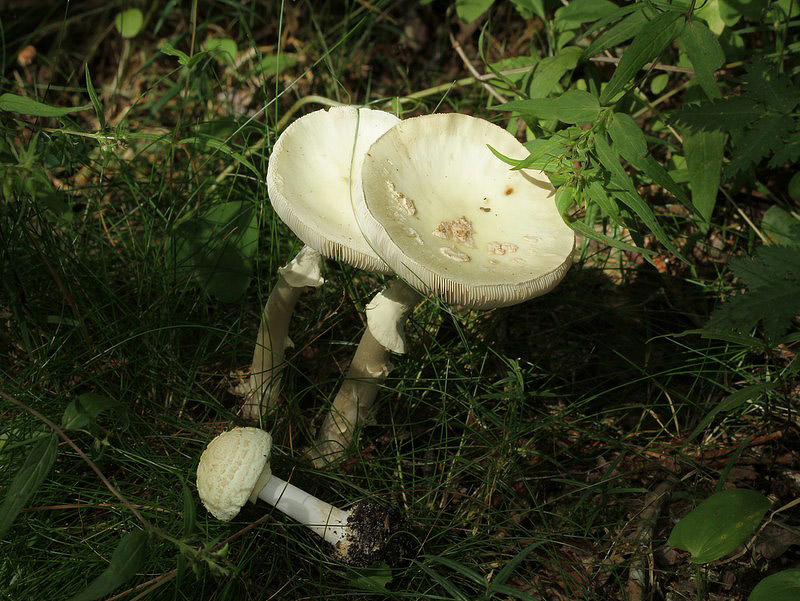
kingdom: Fungi
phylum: Basidiomycota
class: Agaricomycetes
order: Agaricales
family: Amanitaceae
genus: Amanita
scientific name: Amanita citrina
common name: kugleknoldet fluesvamp
